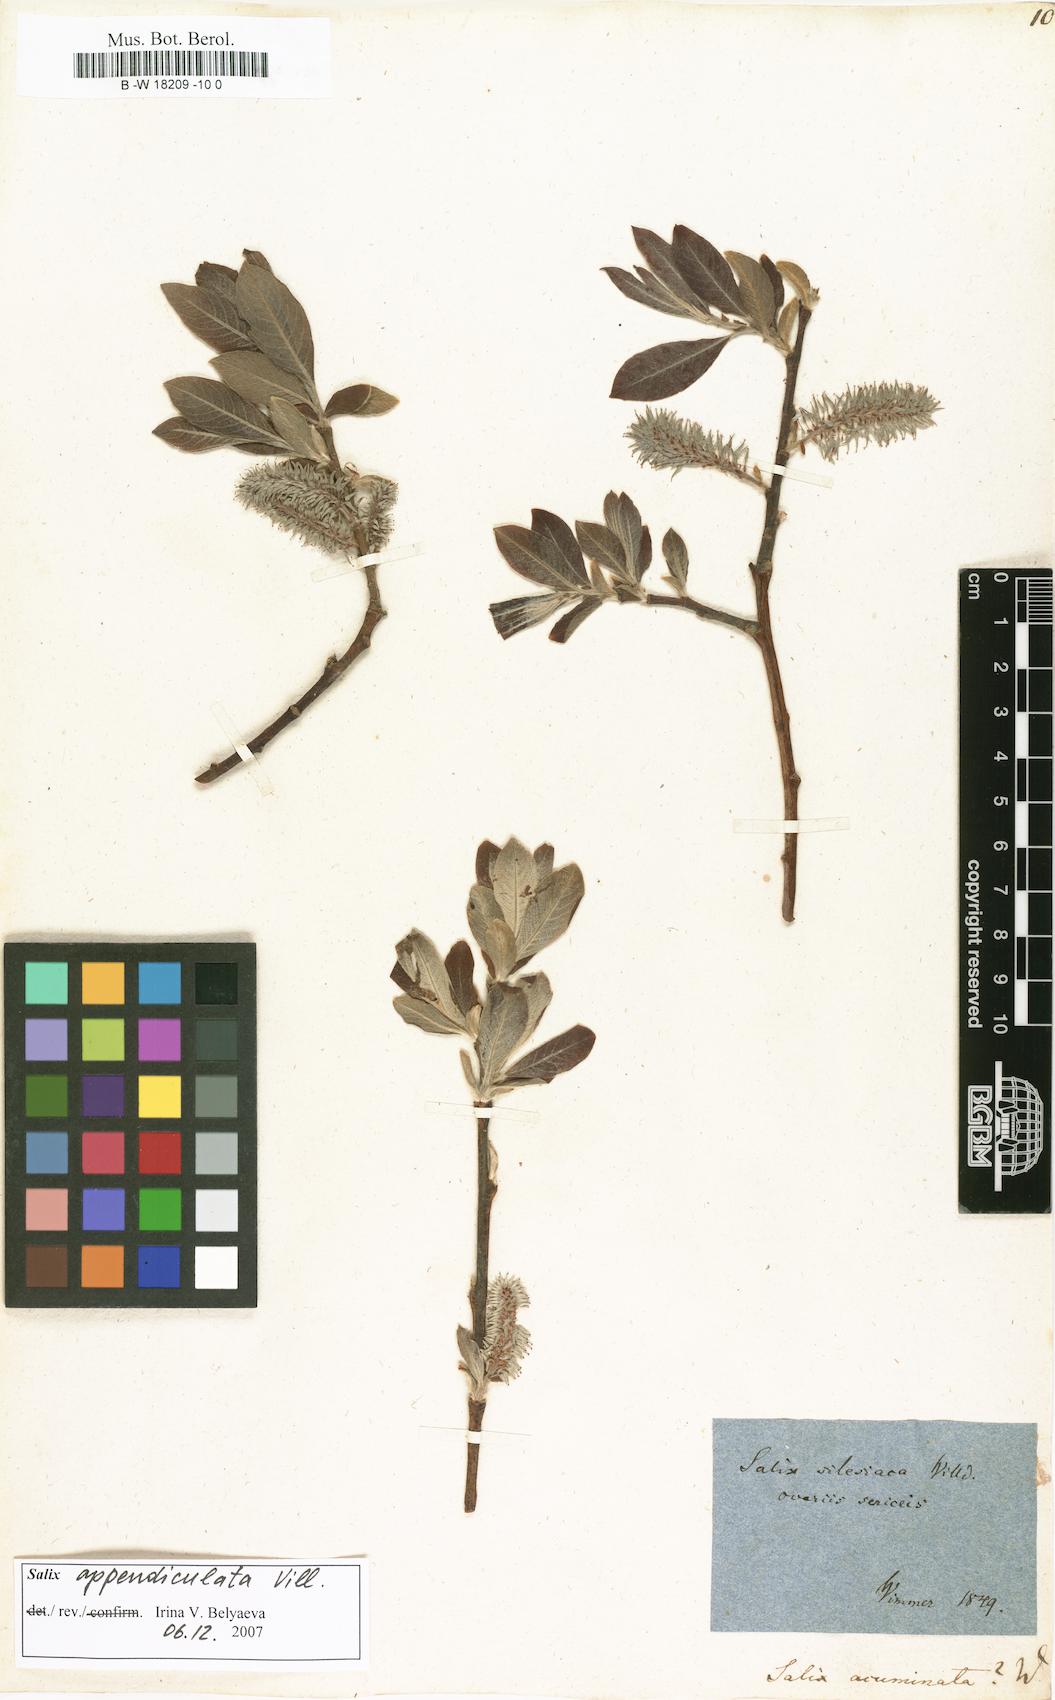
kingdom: Plantae
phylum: Tracheophyta
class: Magnoliopsida
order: Malpighiales
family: Salicaceae
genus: Salix
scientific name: Salix
